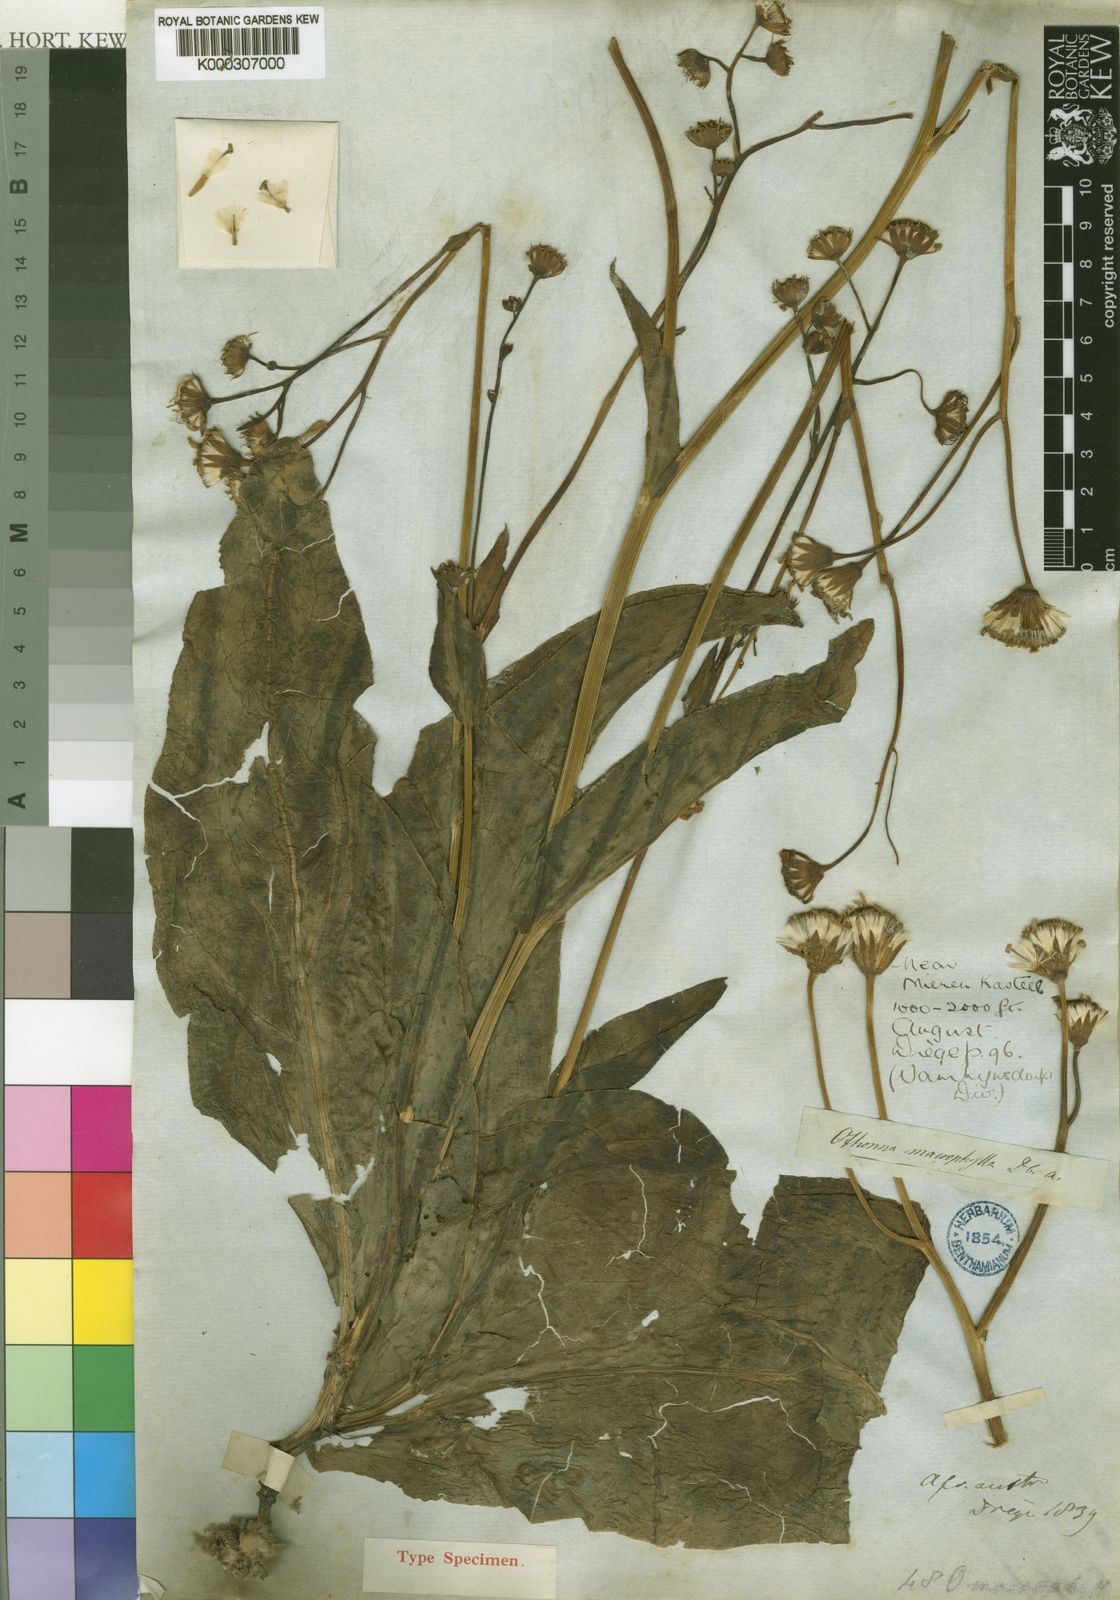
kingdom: Plantae
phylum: Tracheophyta
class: Magnoliopsida
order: Asterales
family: Asteraceae
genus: Othonna
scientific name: Othonna macrophylla
